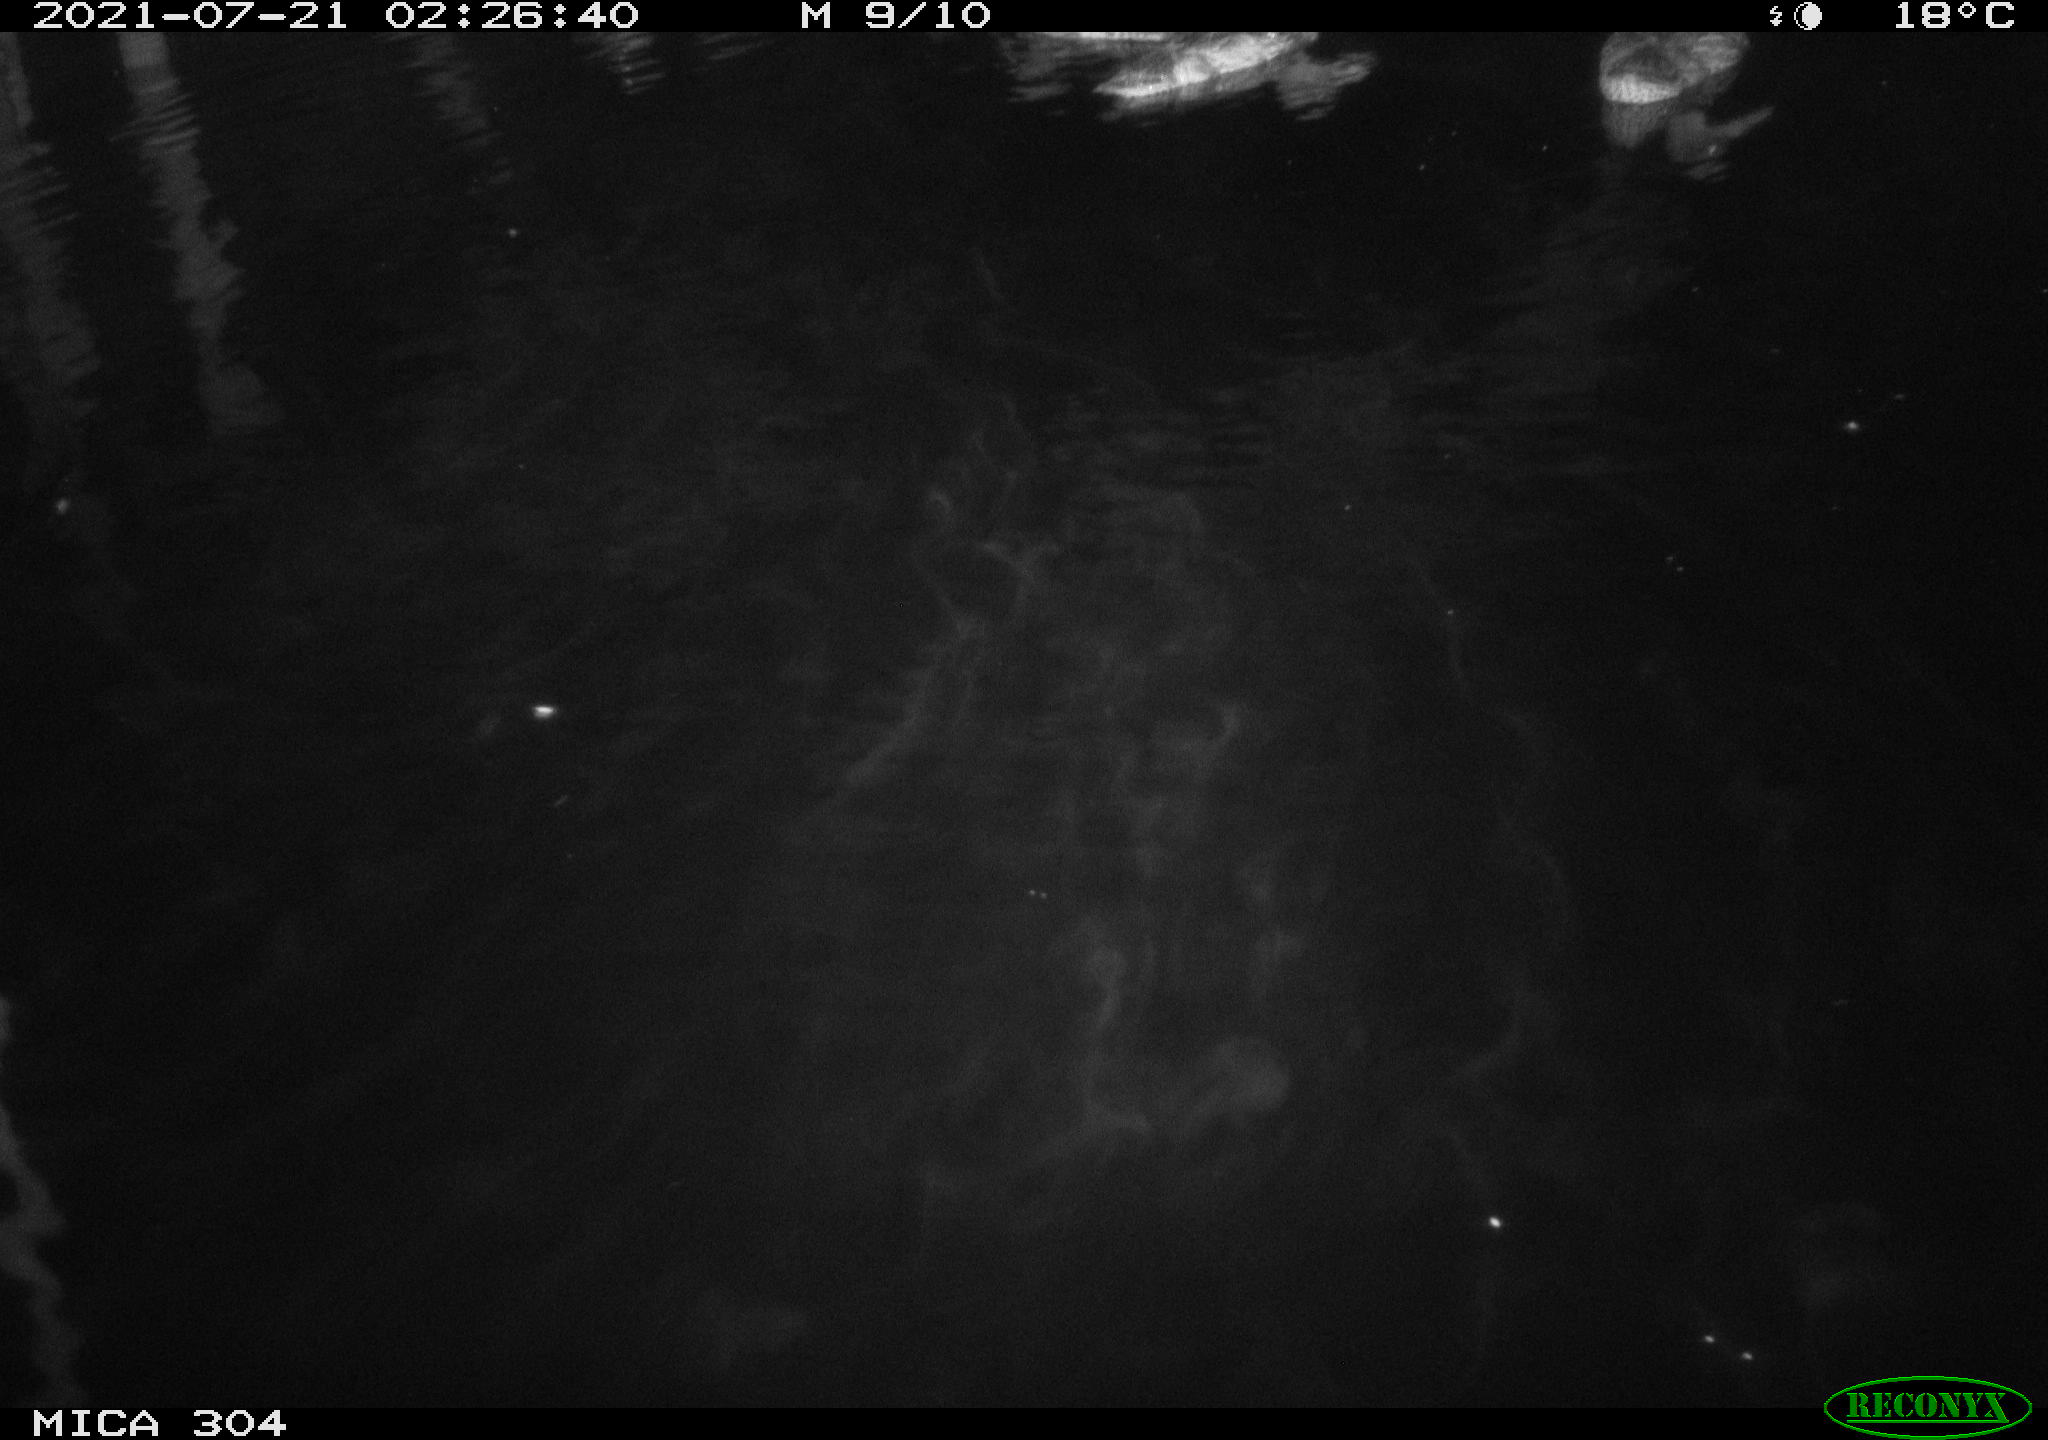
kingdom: Animalia
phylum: Chordata
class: Aves
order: Anseriformes
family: Anatidae
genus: Anas
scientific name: Anas platyrhynchos
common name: Mallard
